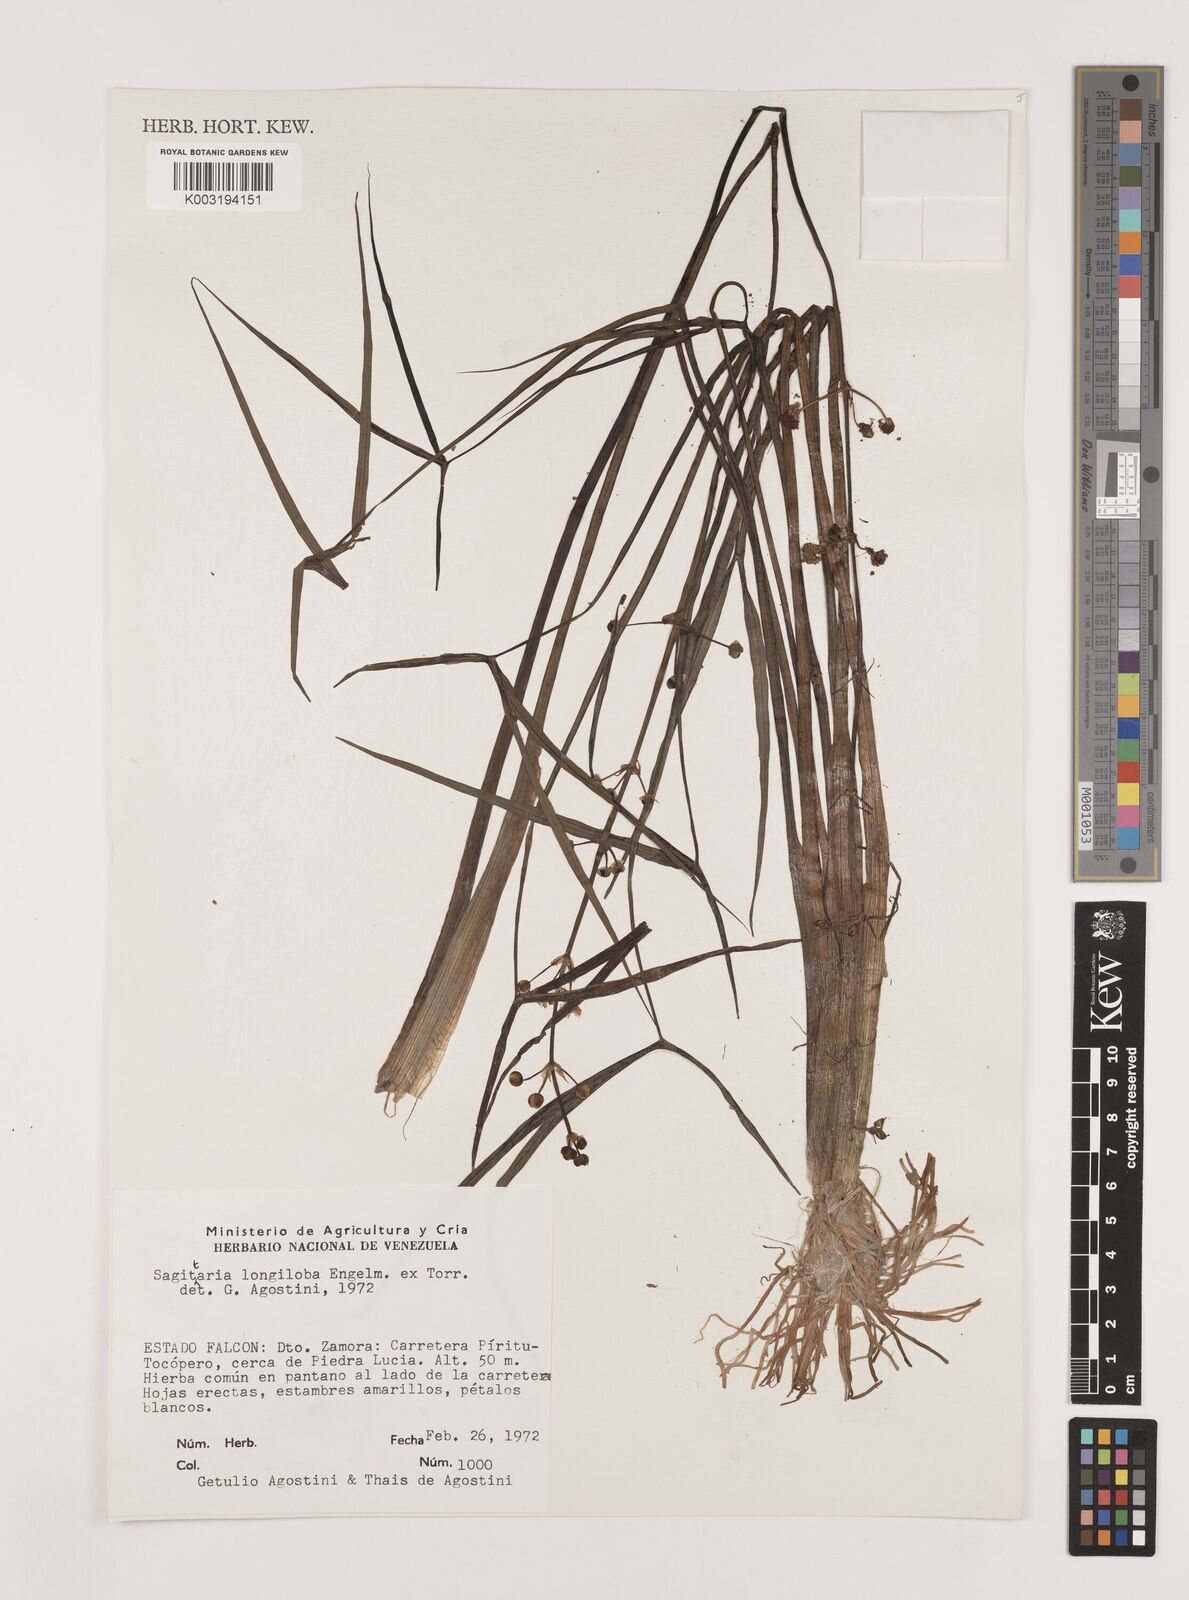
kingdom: Plantae
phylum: Tracheophyta
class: Liliopsida
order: Alismatales
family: Alismataceae
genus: Sagittaria
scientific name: Sagittaria longiloba
